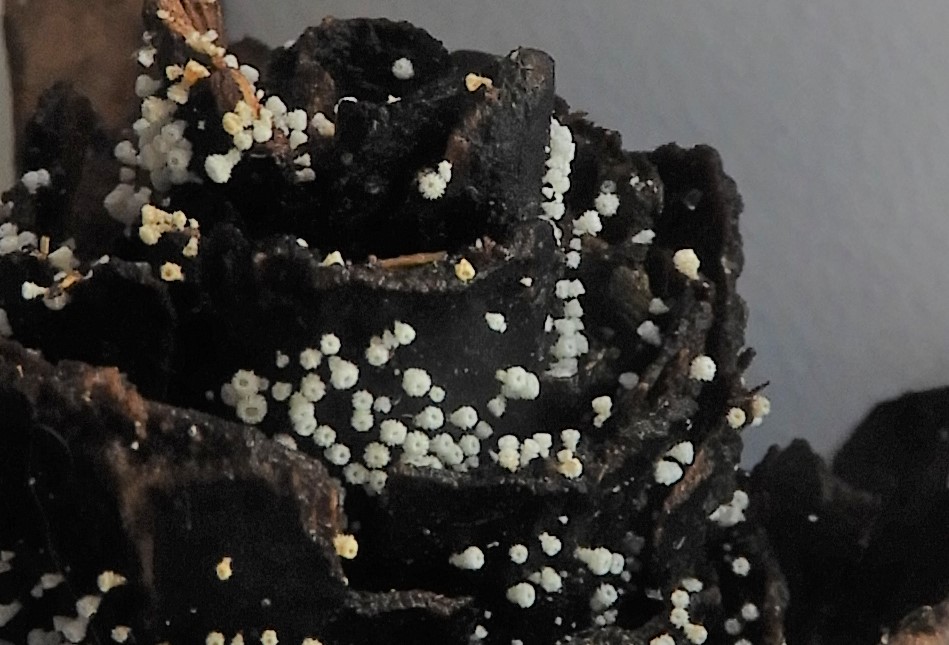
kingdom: Fungi
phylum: Ascomycota
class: Leotiomycetes
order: Helotiales
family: Lachnaceae
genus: Lachnum
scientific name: Lachnum virgineum
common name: jomfru-frynseskive
